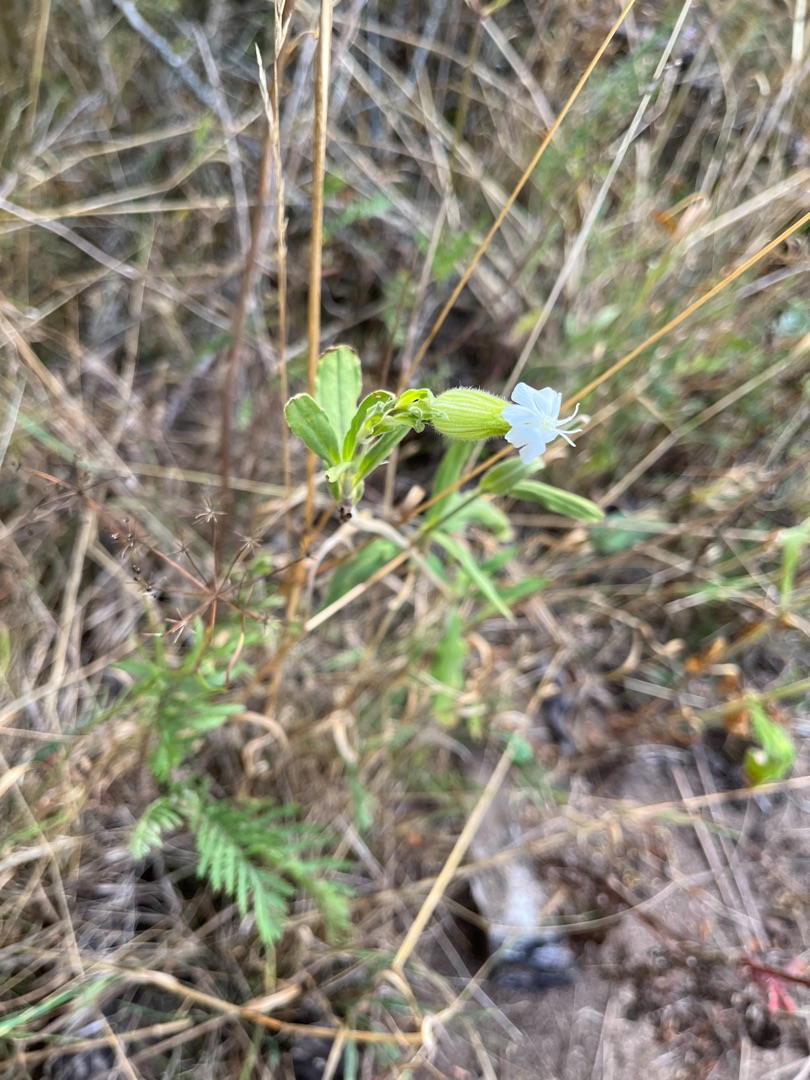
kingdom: Plantae
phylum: Tracheophyta
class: Magnoliopsida
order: Caryophyllales
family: Caryophyllaceae
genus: Silene
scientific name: Silene latifolia
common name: Aftenpragtstjerne
